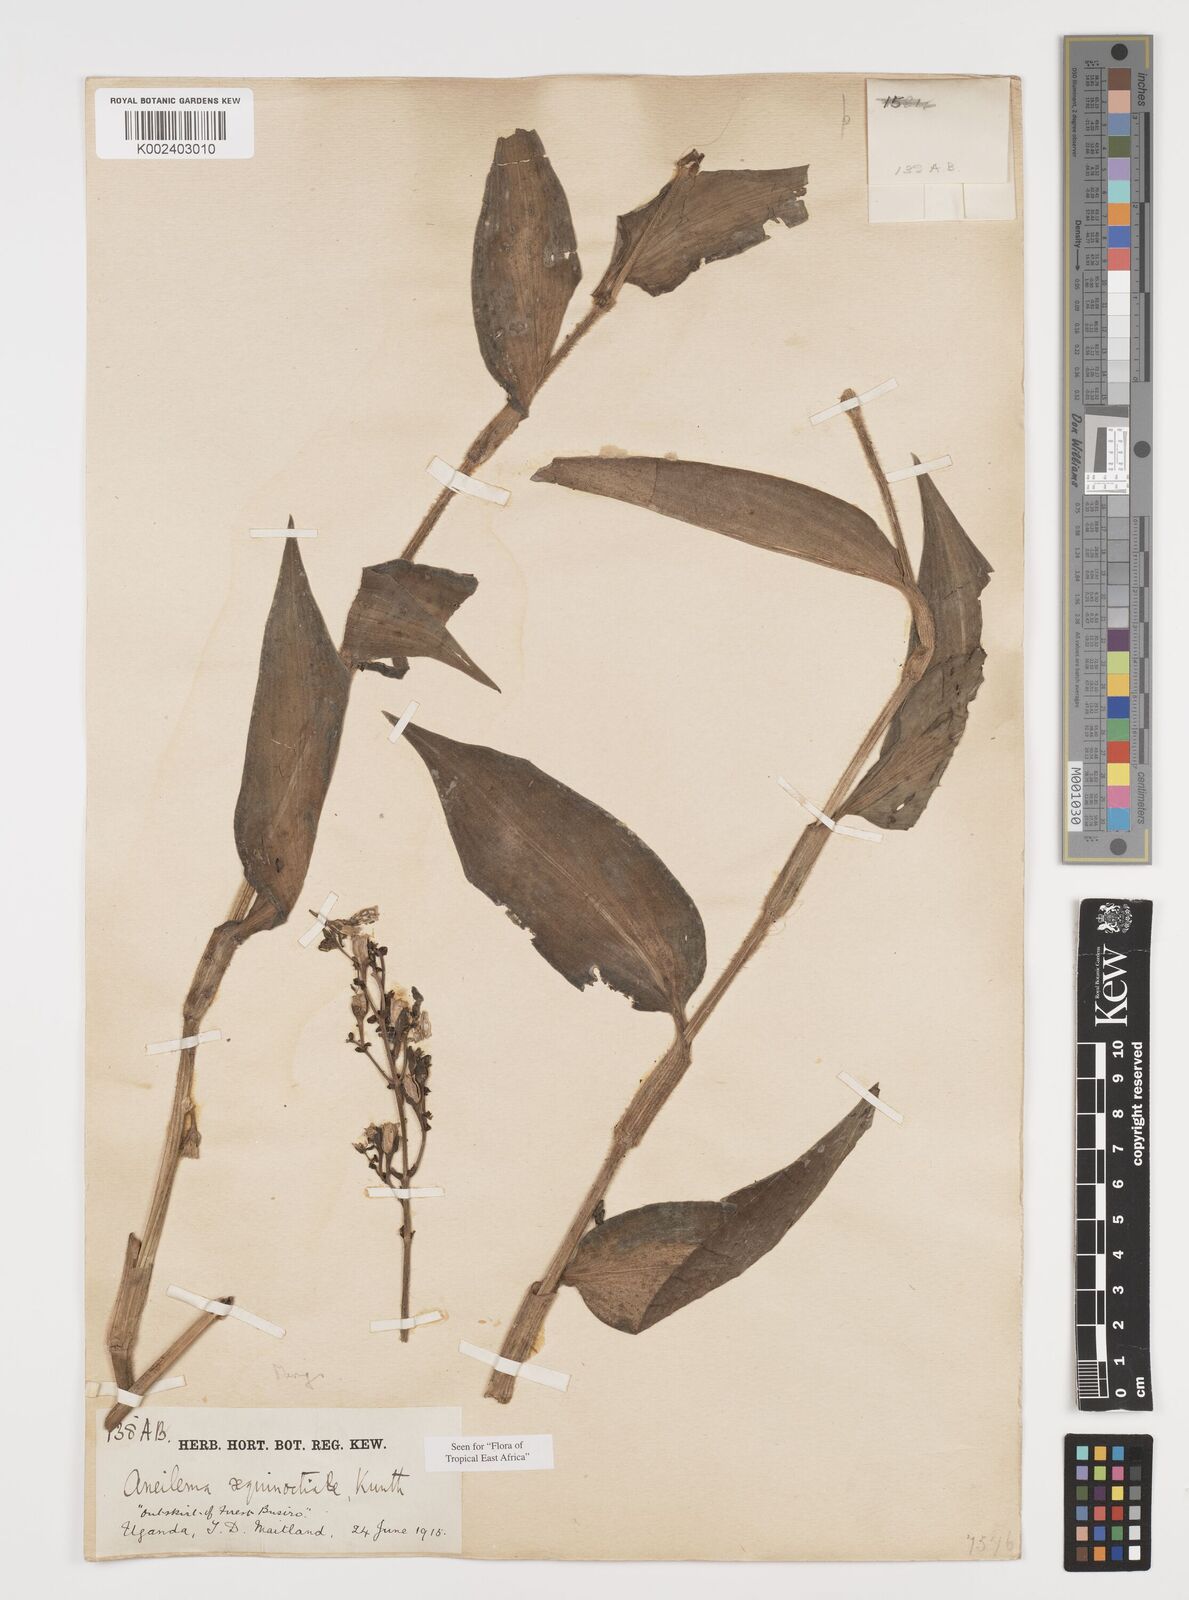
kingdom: Plantae
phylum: Tracheophyta
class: Liliopsida
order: Commelinales
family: Commelinaceae
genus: Aneilema
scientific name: Aneilema aequinoctiale
